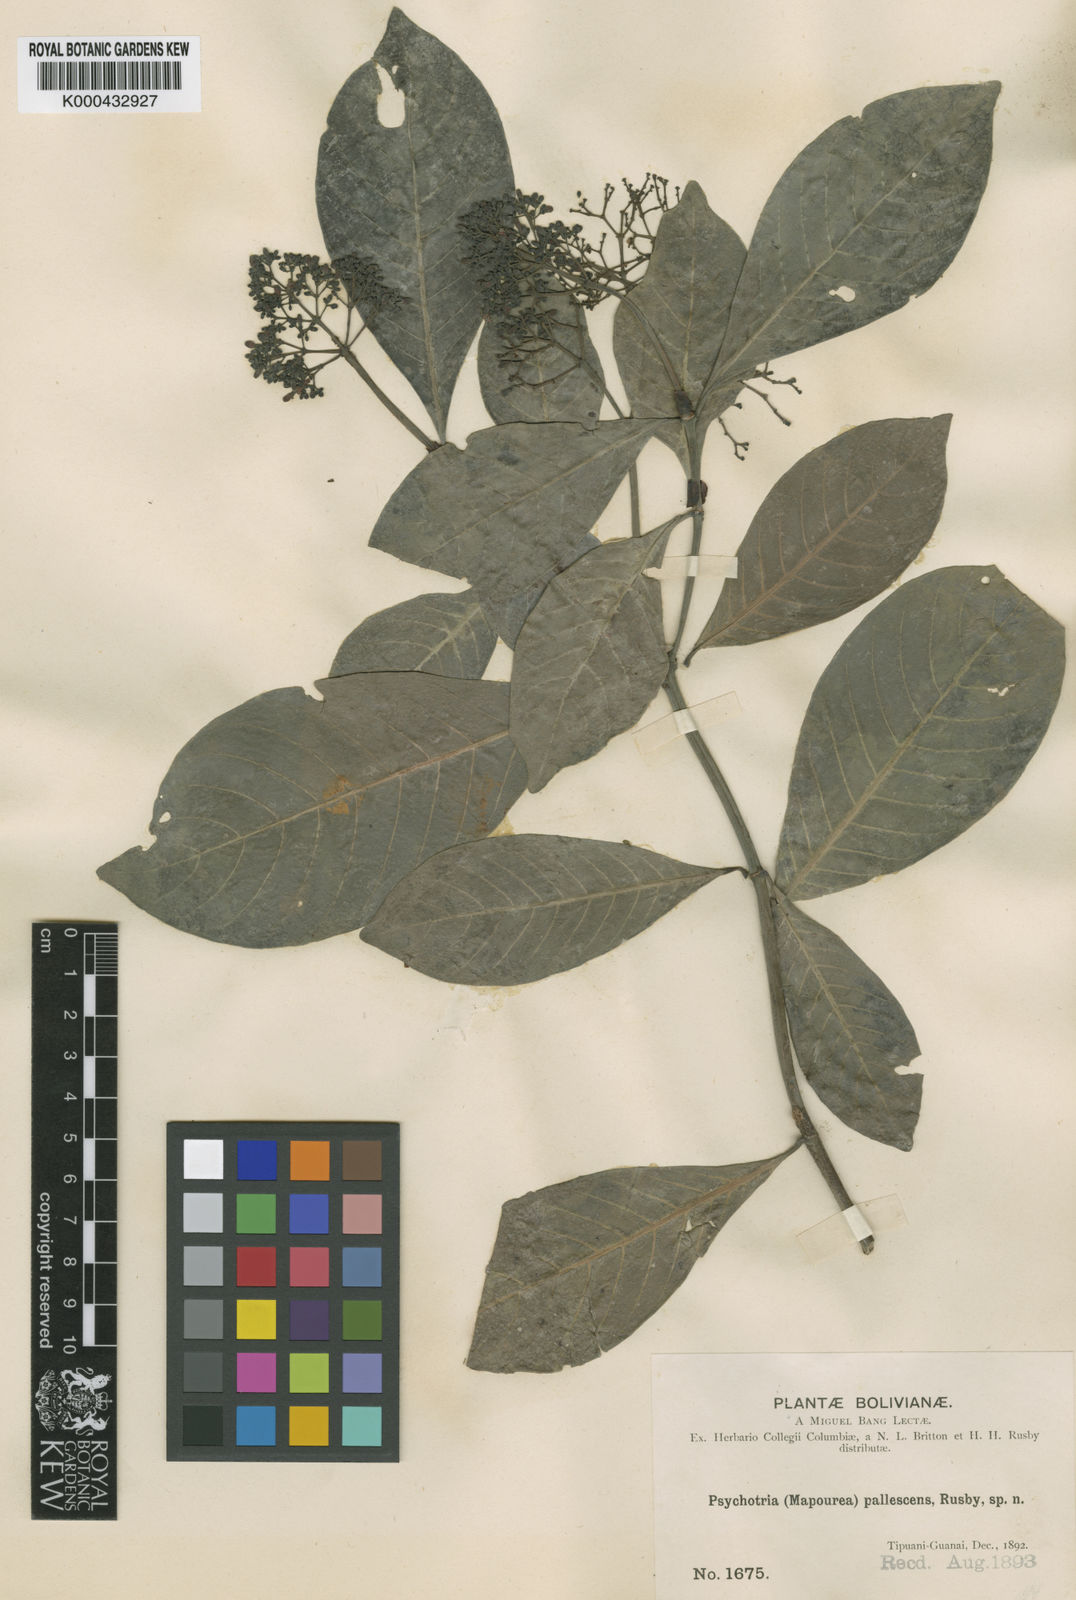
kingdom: Plantae
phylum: Tracheophyta
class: Magnoliopsida
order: Gentianales
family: Rubiaceae
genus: Psychotria
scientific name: Psychotria carthagenensis
